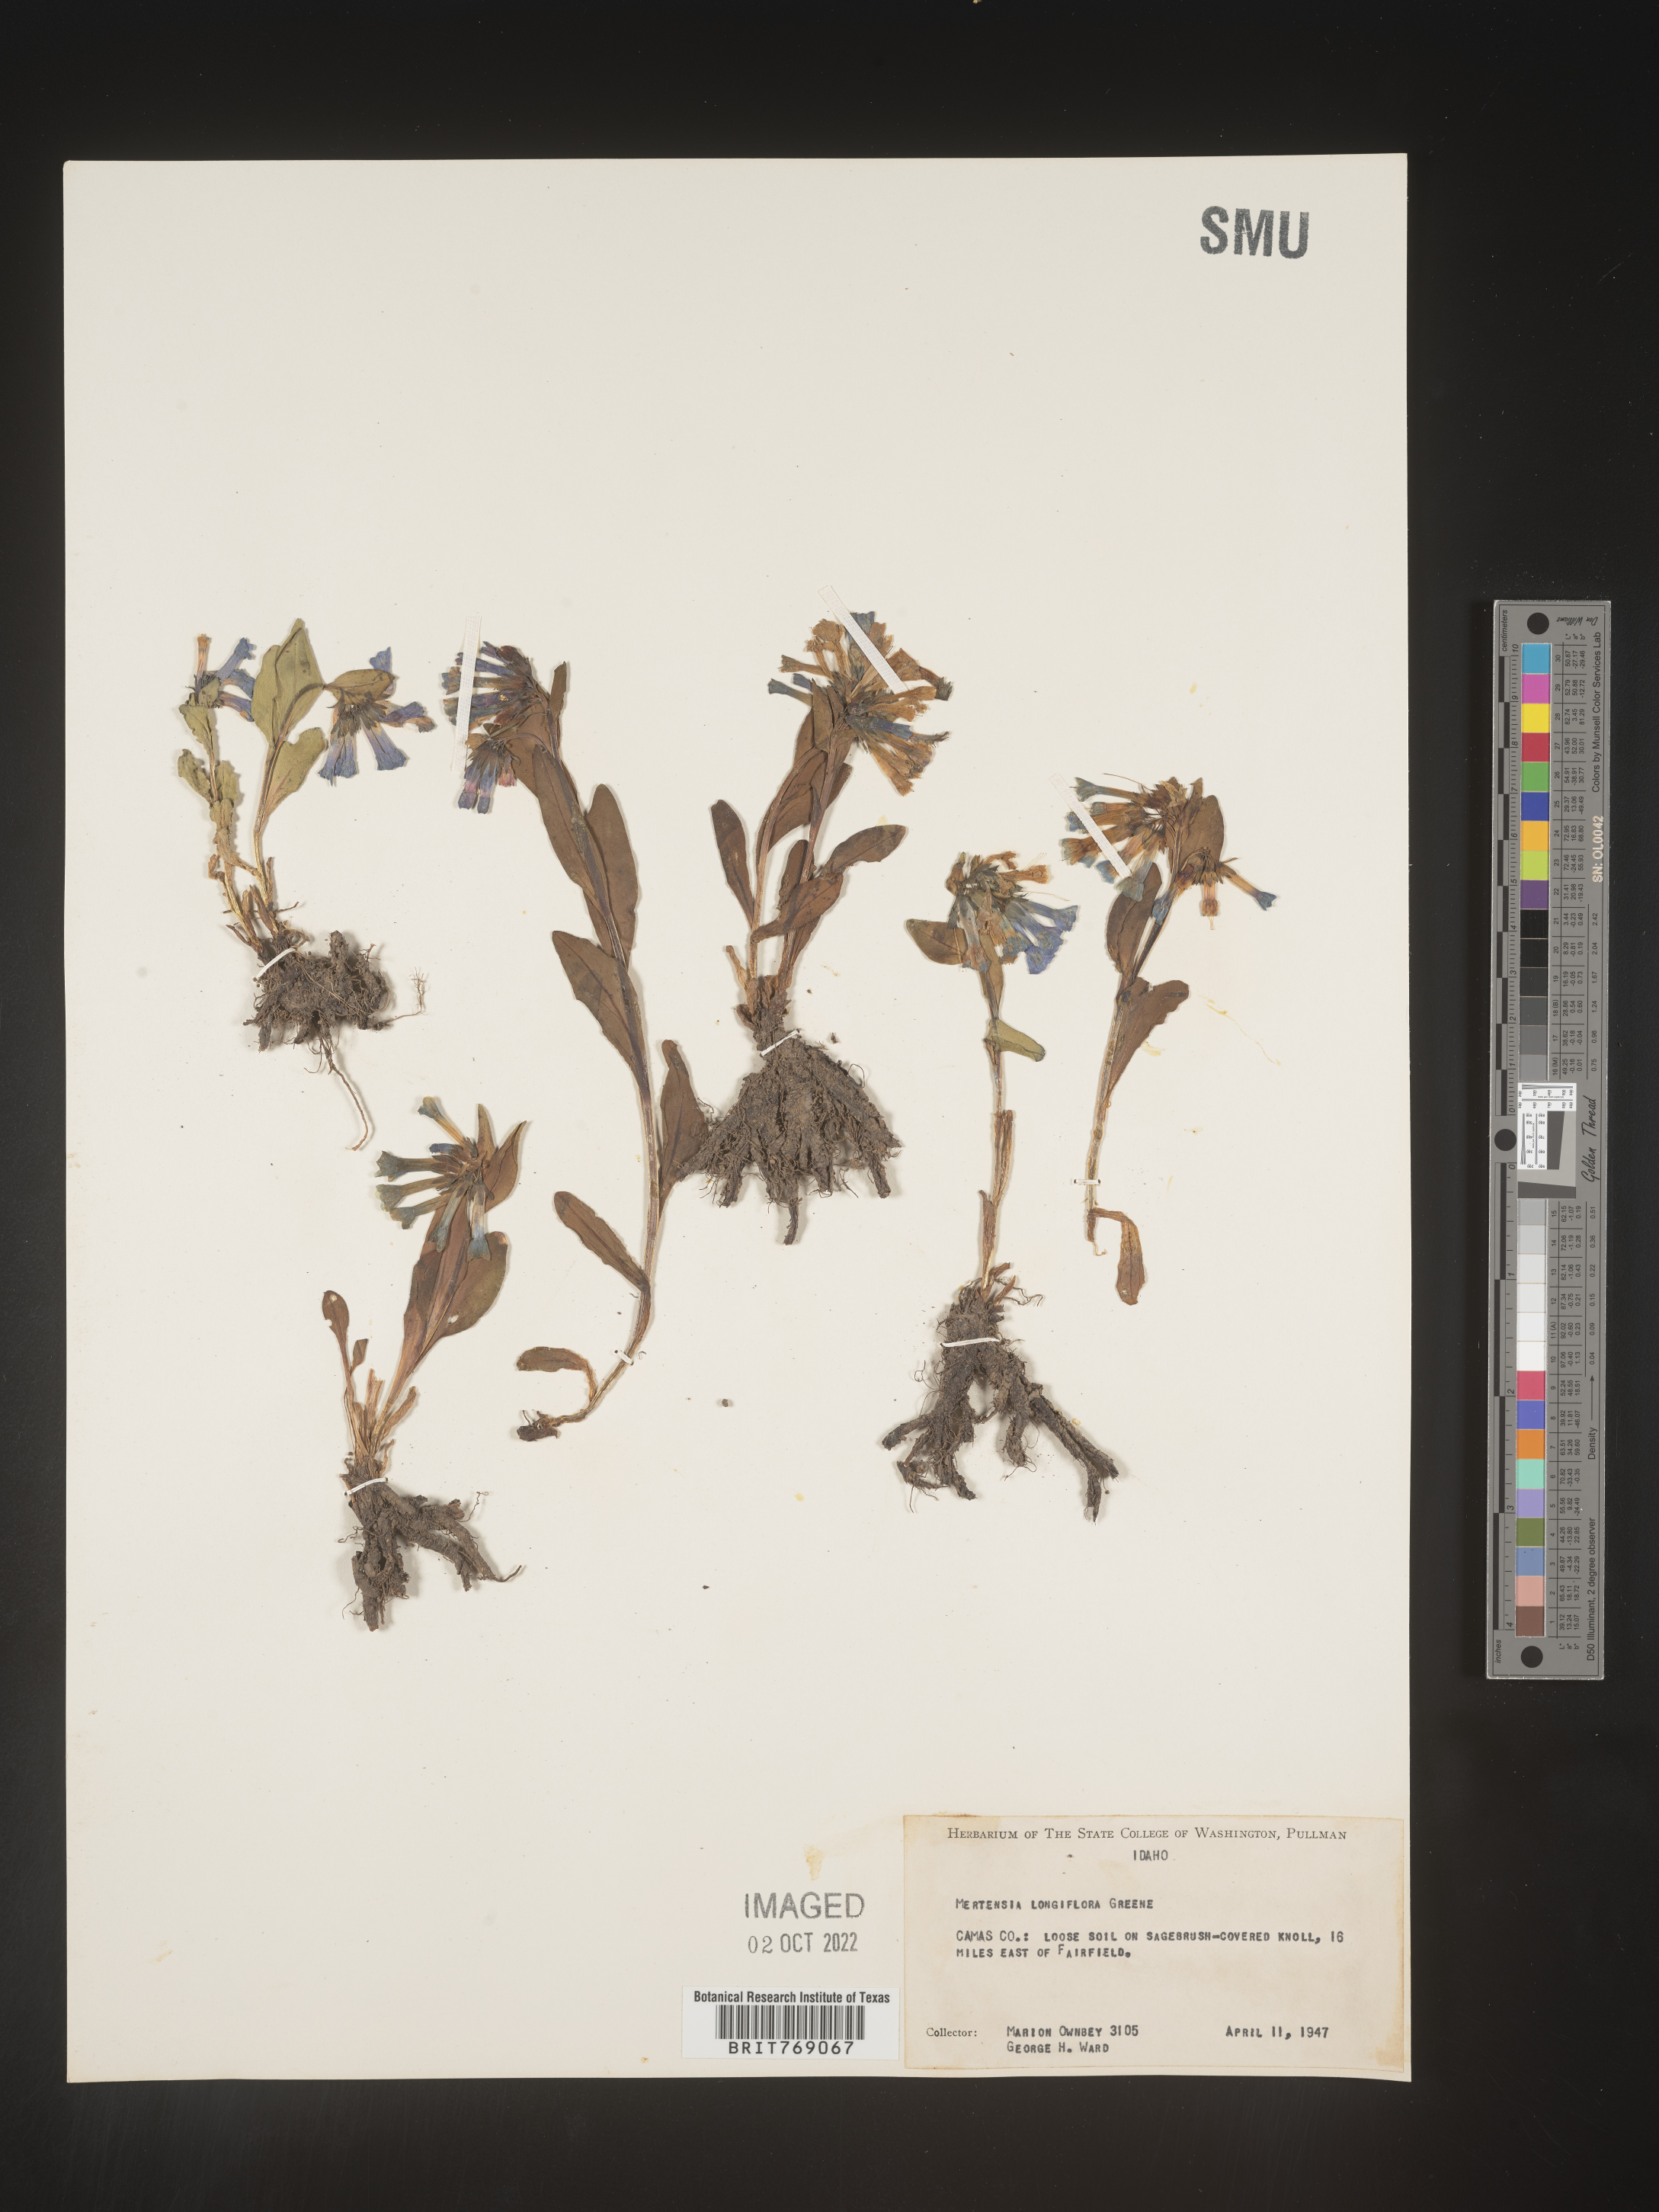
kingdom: Plantae
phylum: Tracheophyta
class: Magnoliopsida
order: Boraginales
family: Boraginaceae
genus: Mertensia
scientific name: Mertensia
